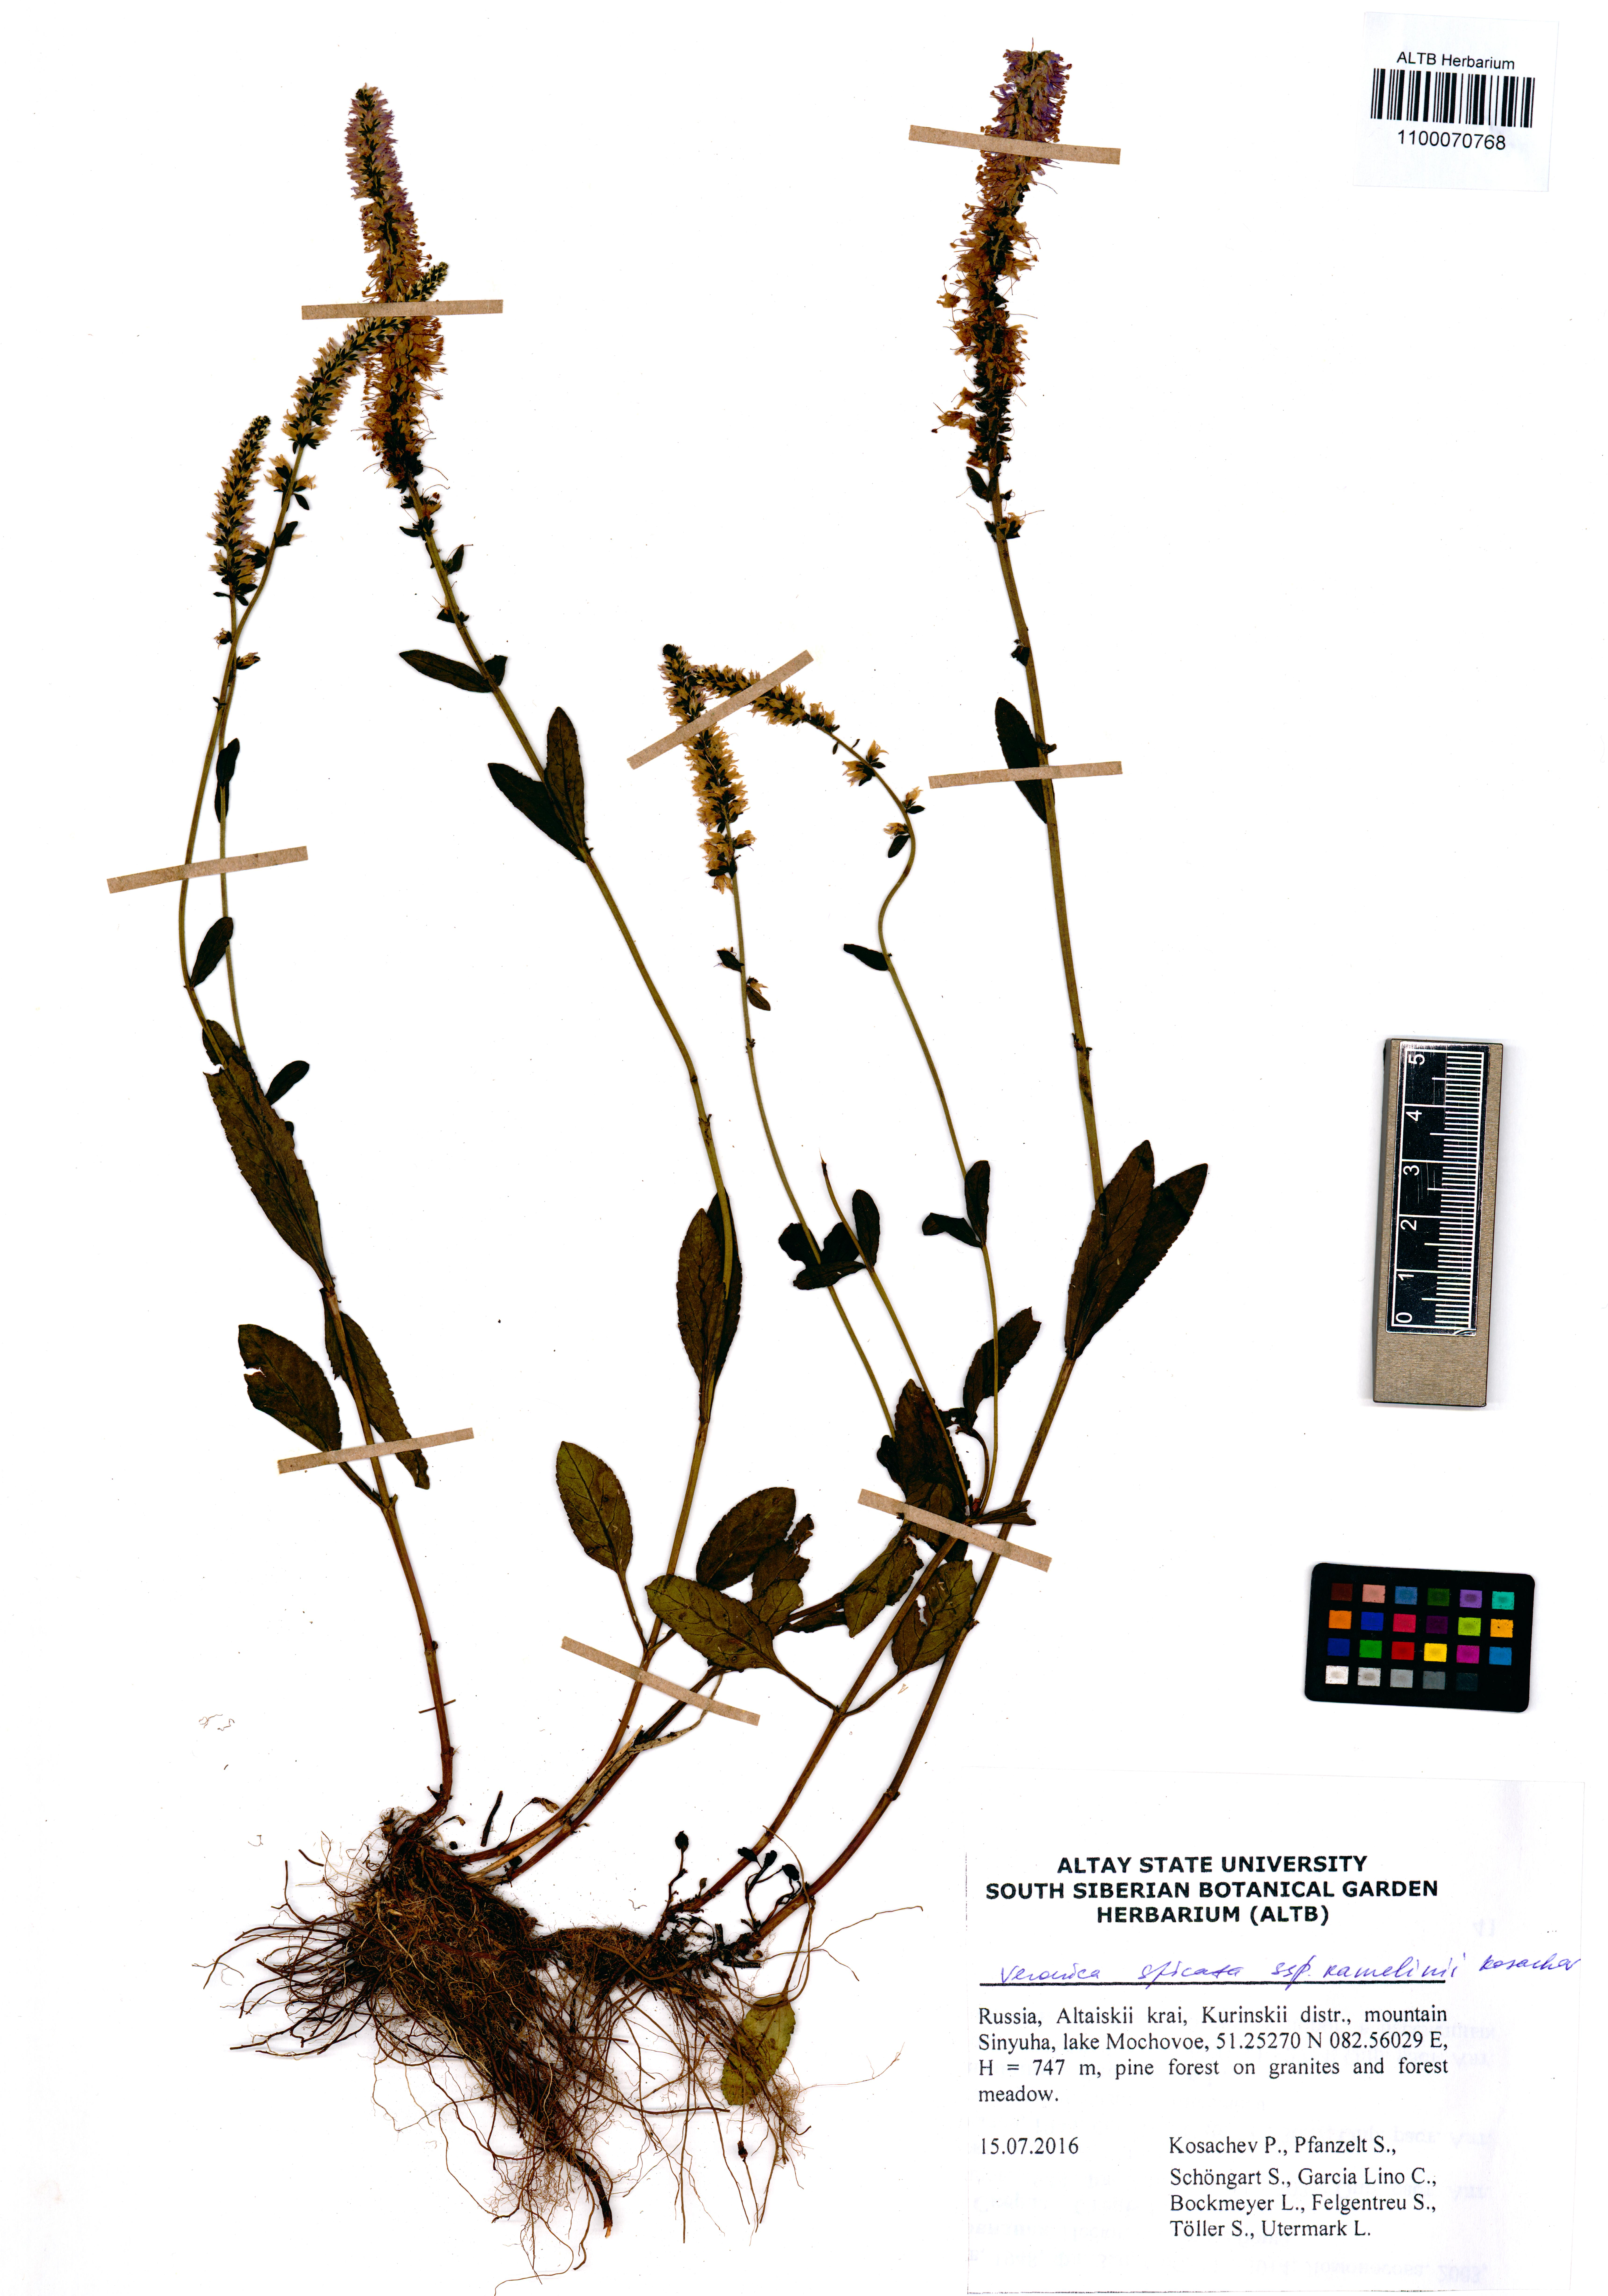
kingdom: Plantae
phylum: Tracheophyta
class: Magnoliopsida
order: Lamiales
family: Plantaginaceae
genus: Veronica
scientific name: Veronica spicata
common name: Spiked speedwell
